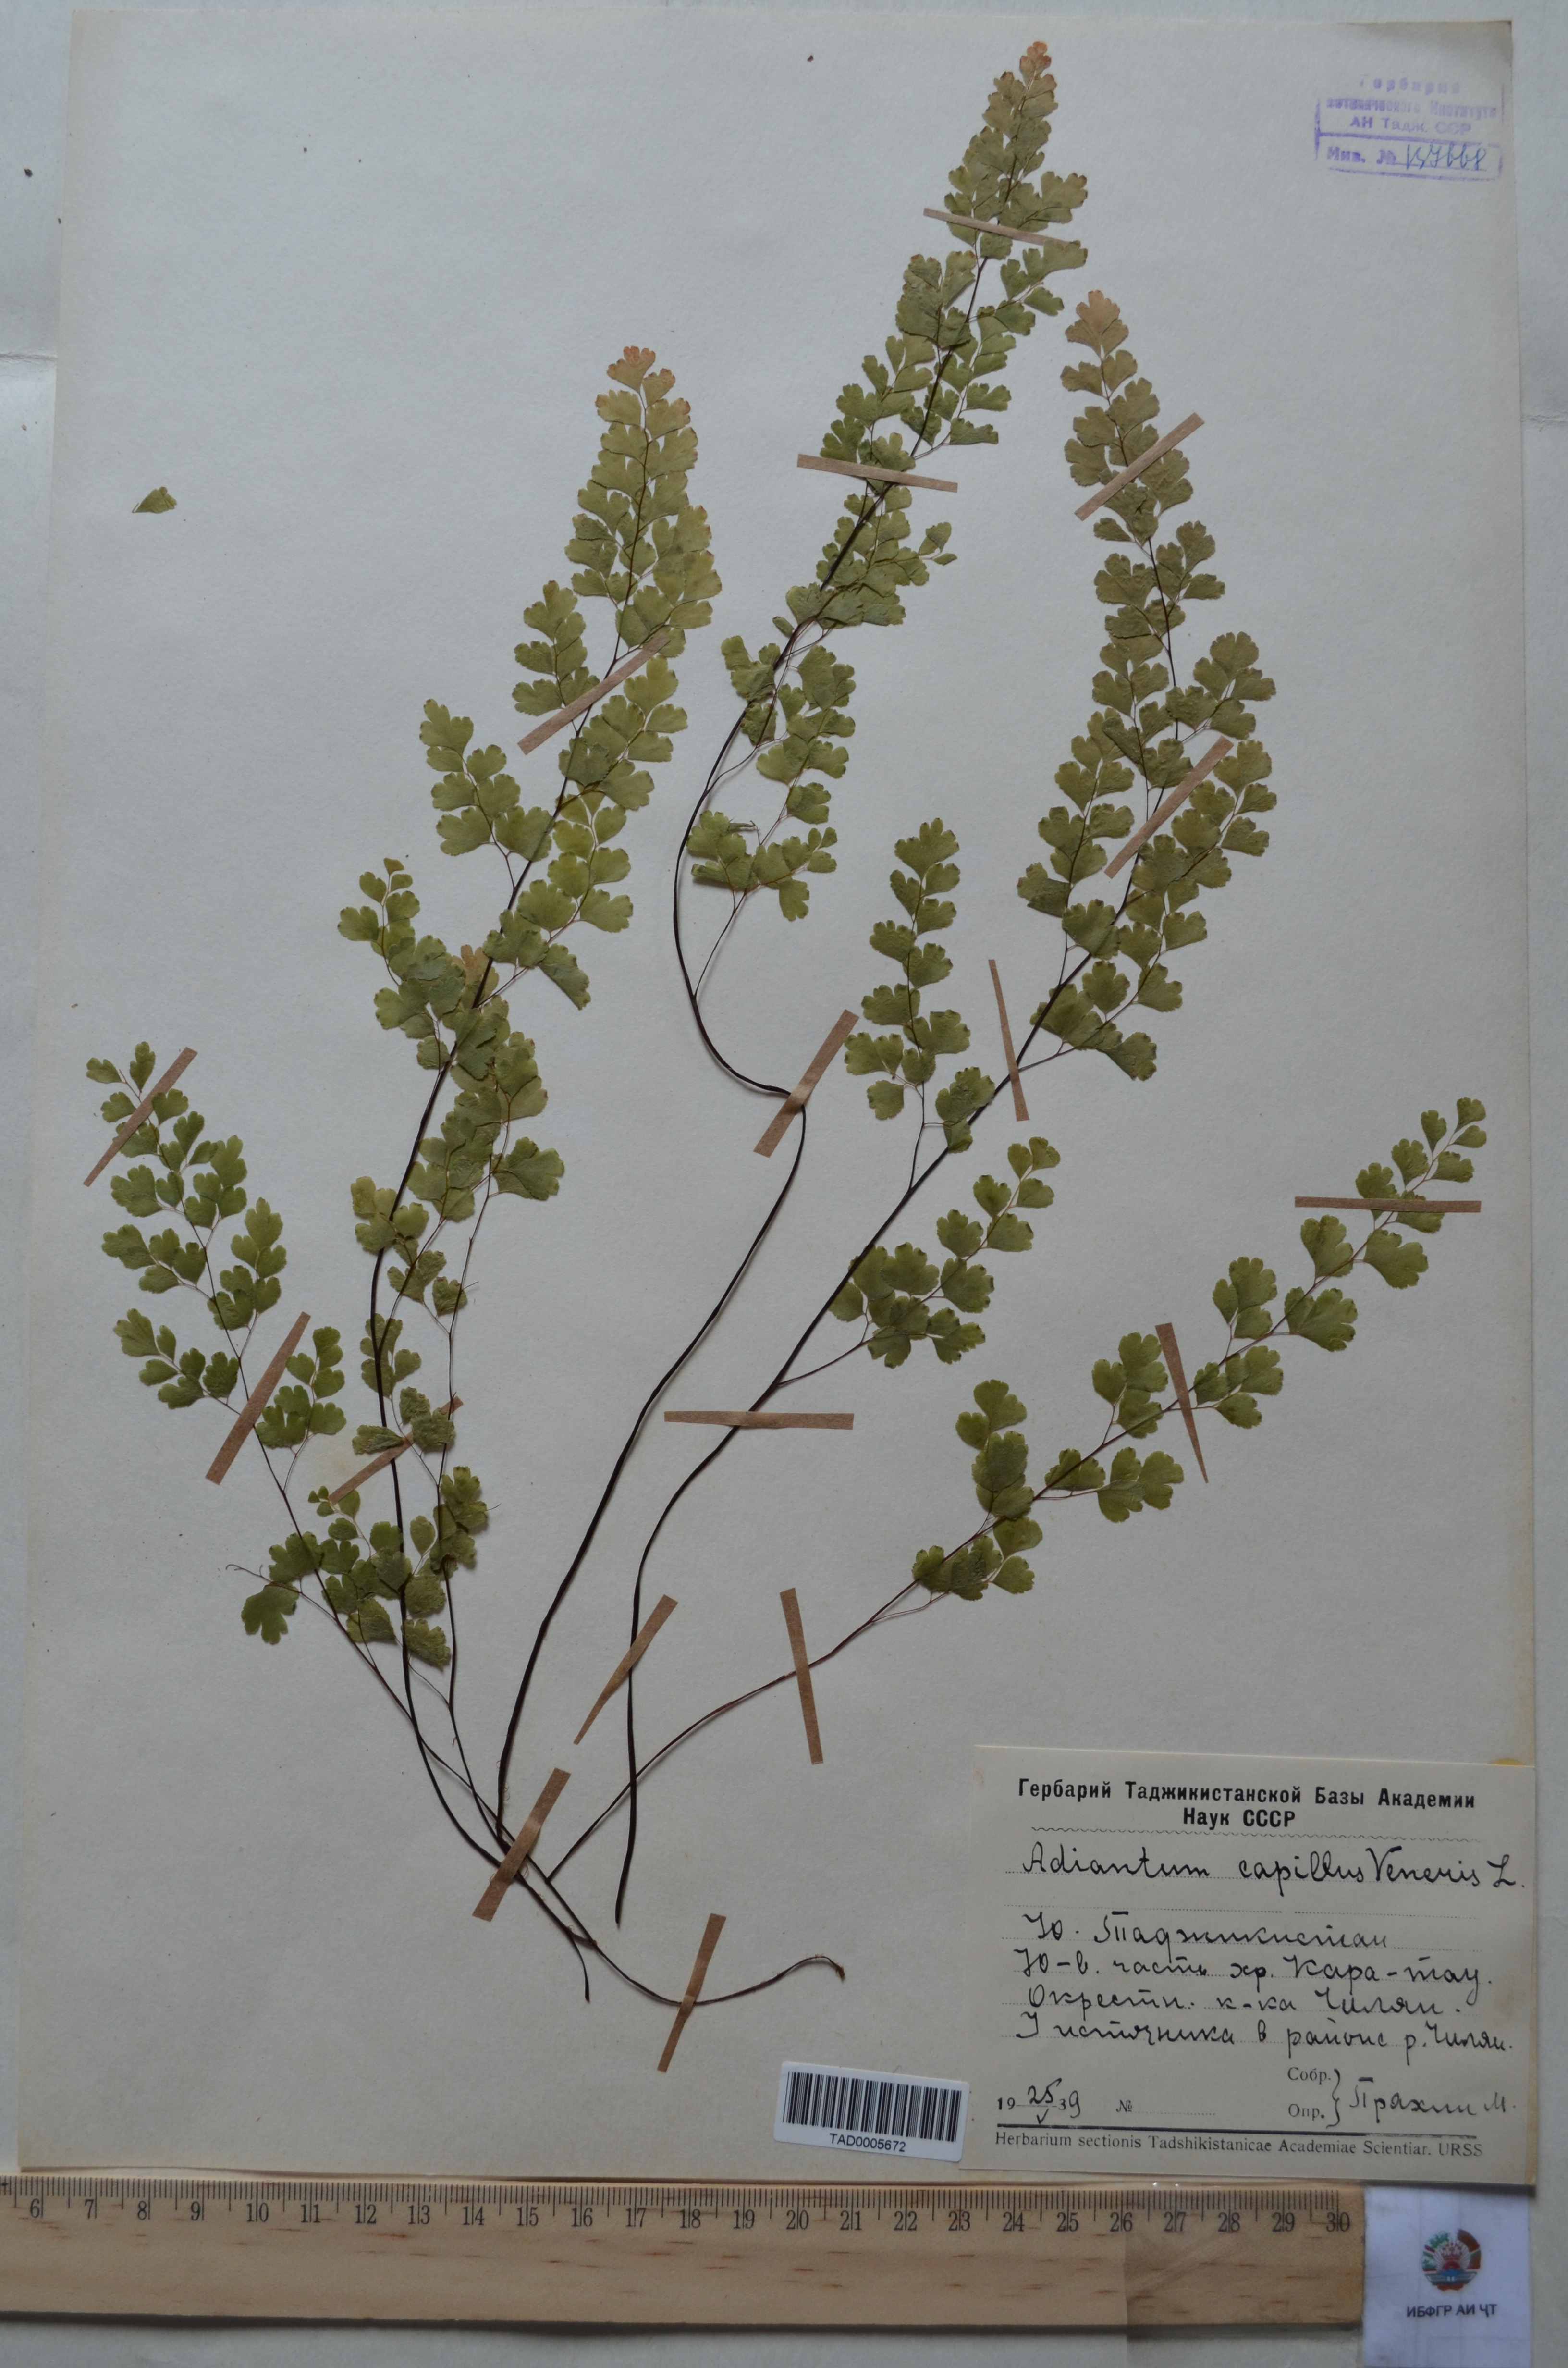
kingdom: Plantae
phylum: Tracheophyta
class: Polypodiopsida
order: Polypodiales
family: Pteridaceae
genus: Adiantum
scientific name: Adiantum capillus-veneris
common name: Maidenhair fern
